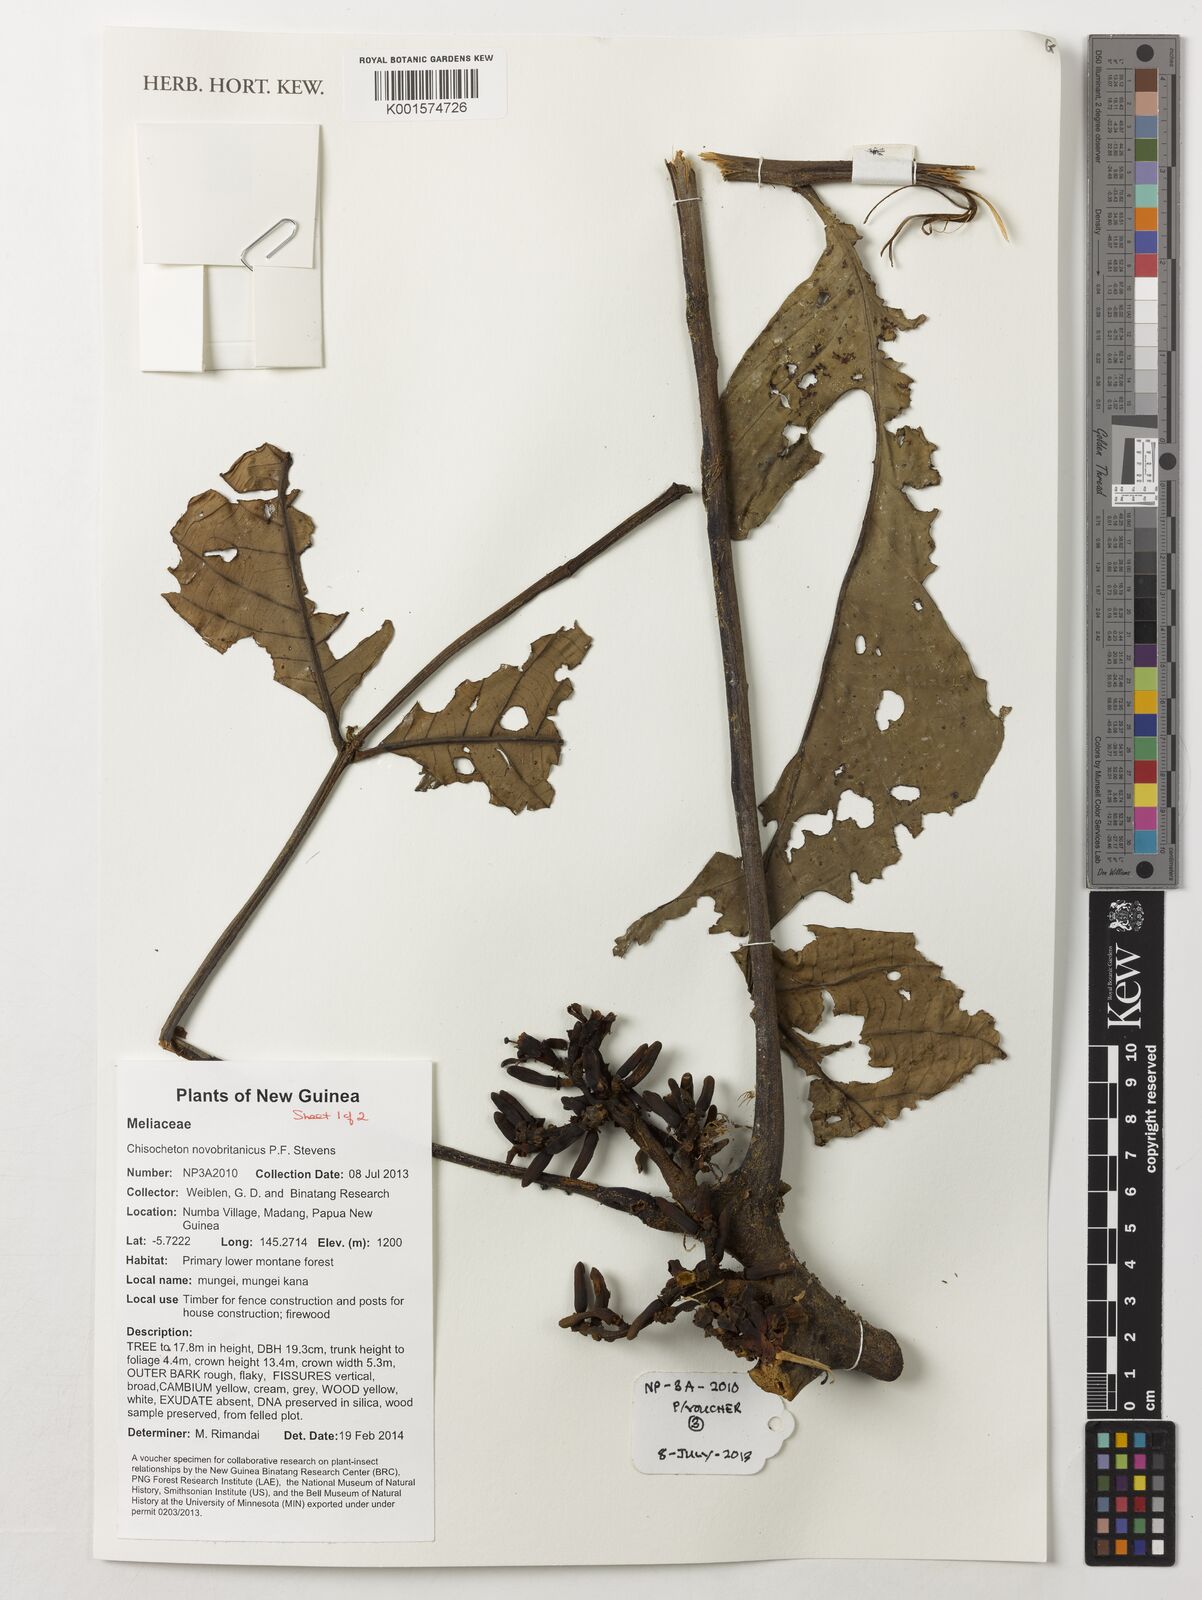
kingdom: Plantae
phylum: Tracheophyta
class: Magnoliopsida
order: Sapindales
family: Meliaceae
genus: Chisocheton
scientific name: Chisocheton novobritannicus
